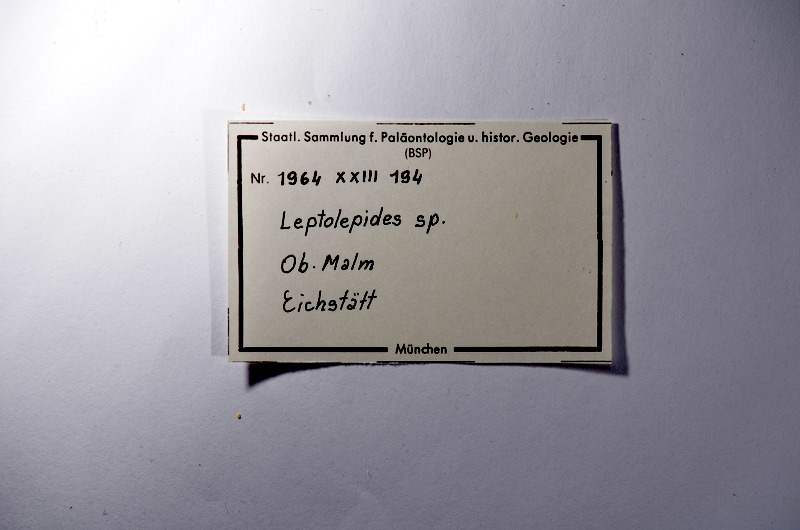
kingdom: Animalia
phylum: Chordata
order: Salmoniformes
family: Orthogonikleithridae
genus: Leptolepides
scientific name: Leptolepides
